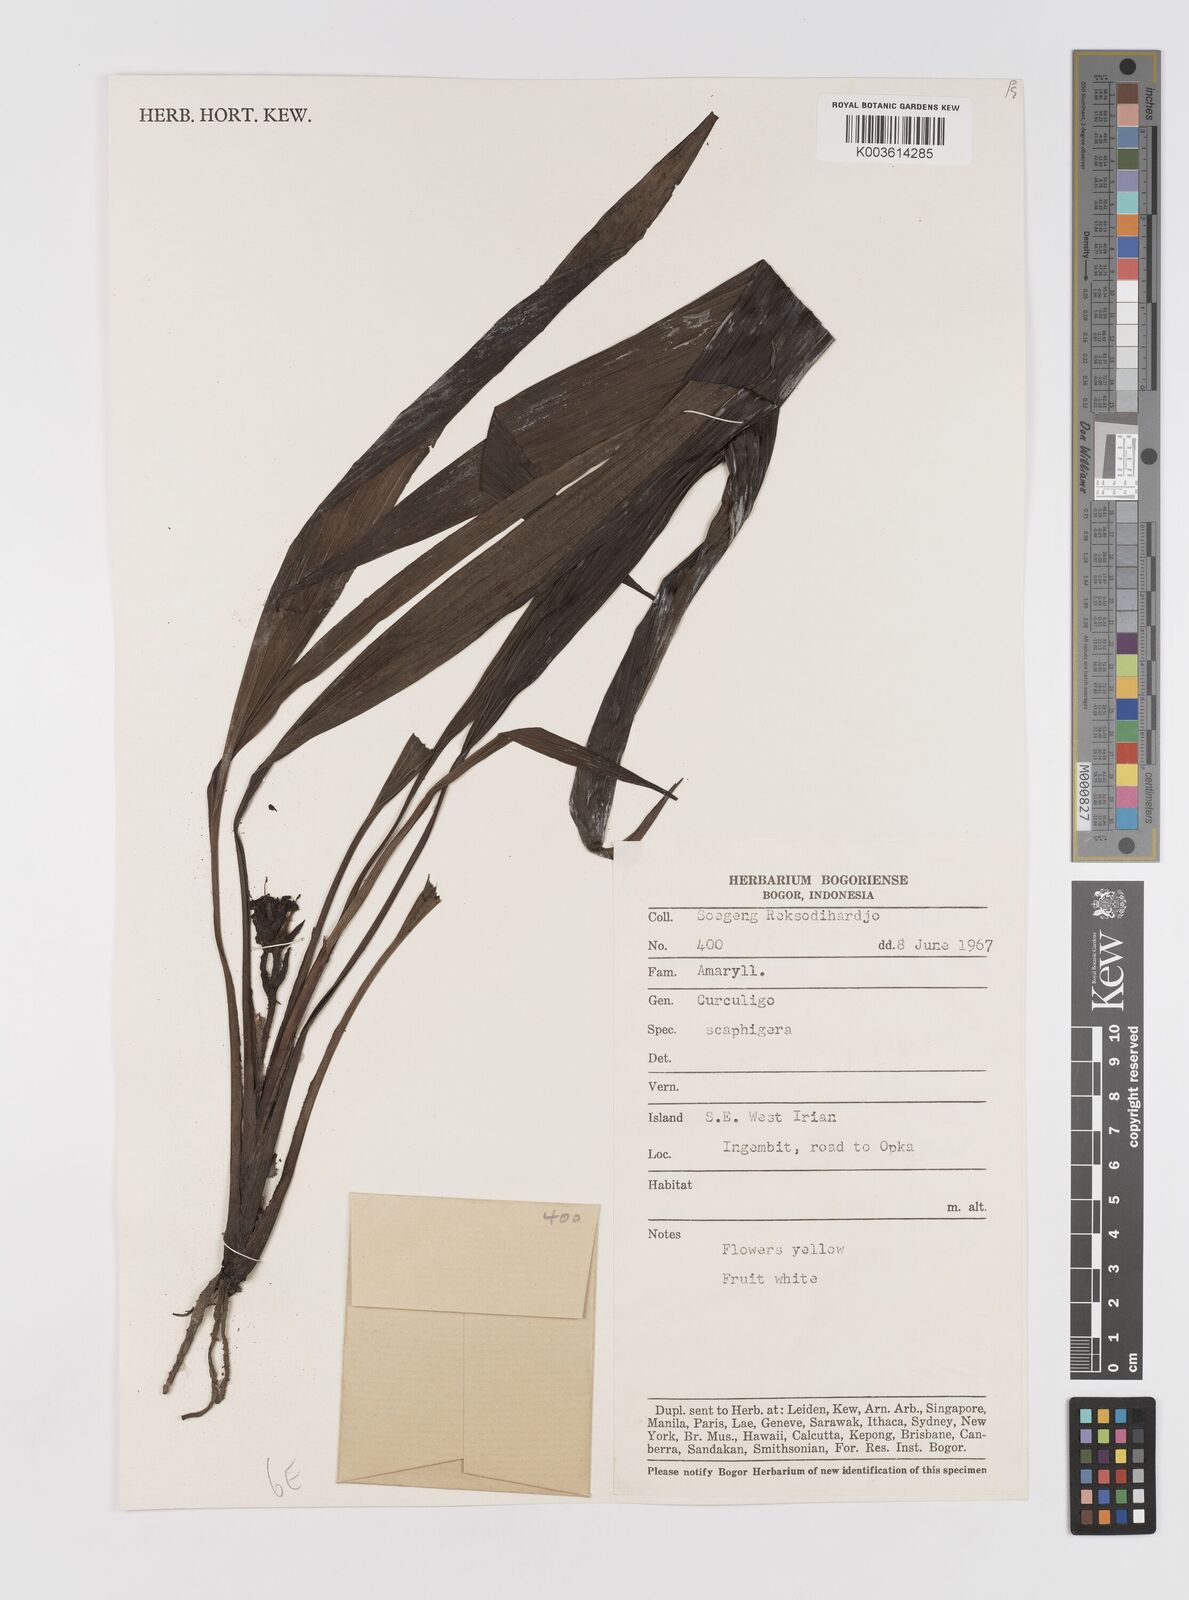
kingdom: Plantae
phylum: Tracheophyta
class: Liliopsida
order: Asparagales
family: Hypoxidaceae
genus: Curculigo
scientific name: Curculigo erecta
